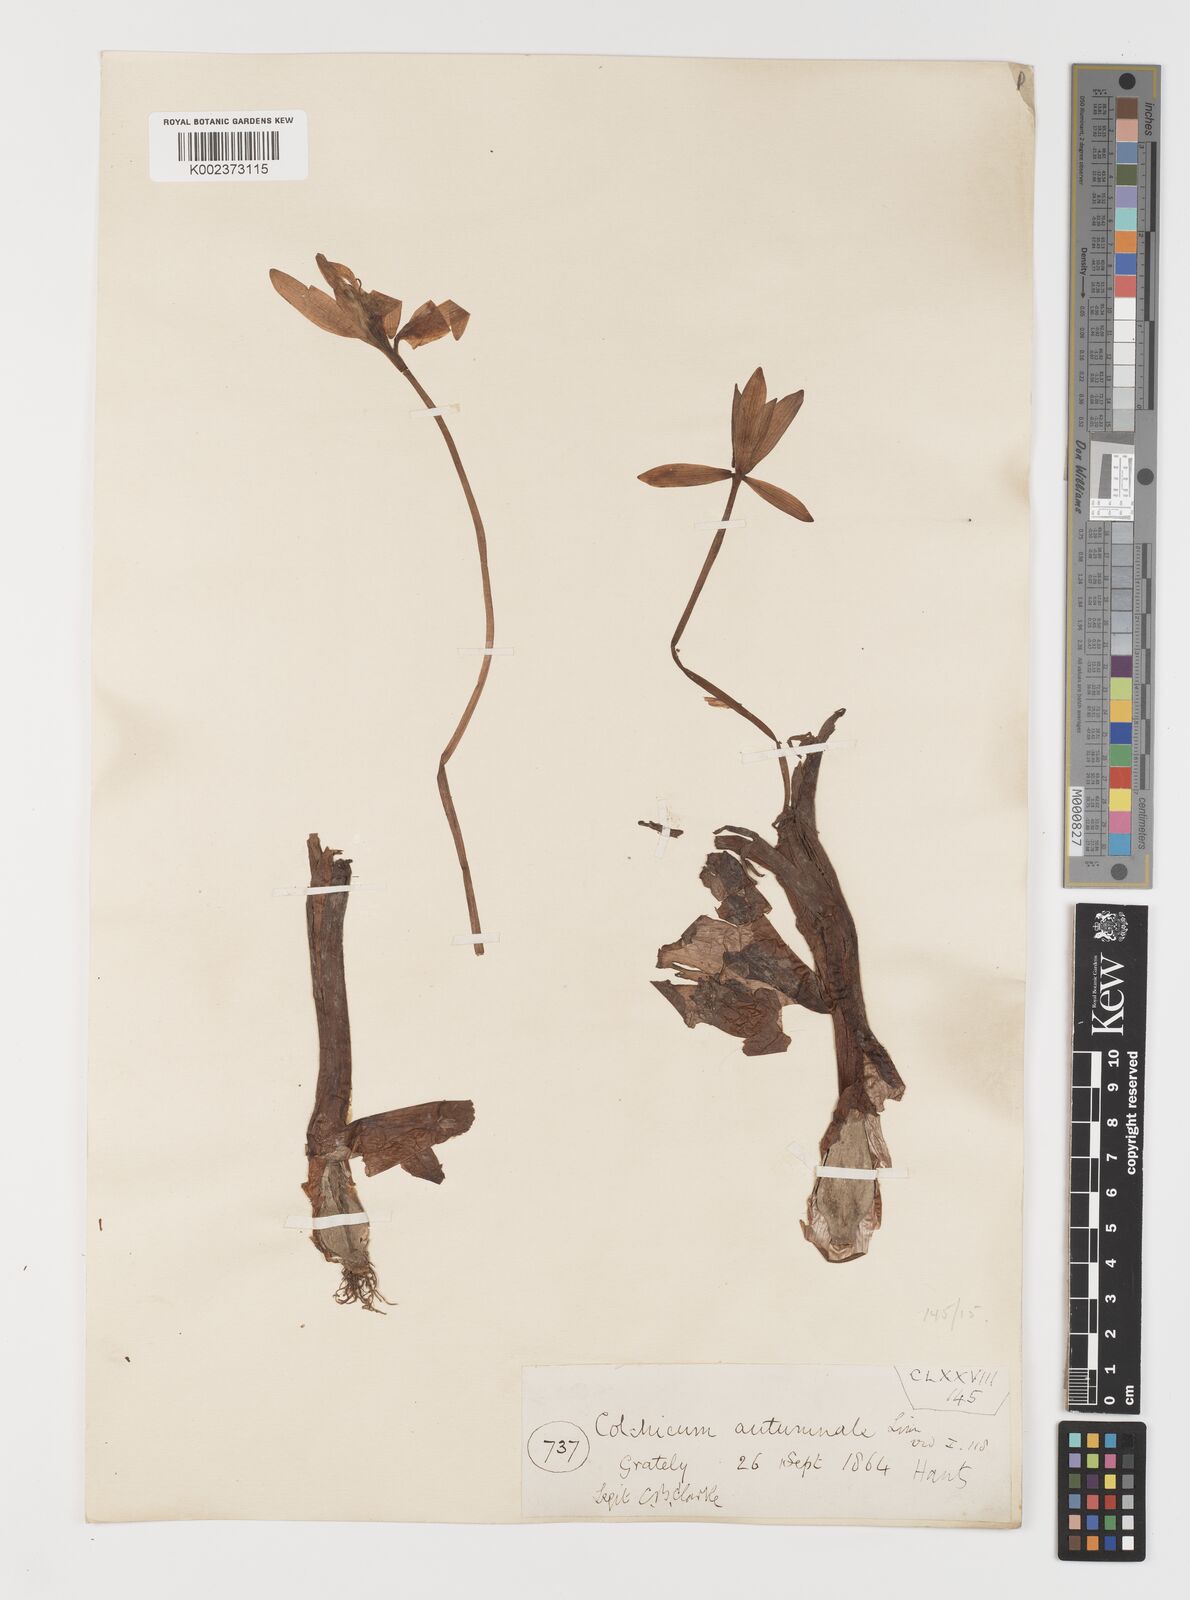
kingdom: Plantae
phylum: Tracheophyta
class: Liliopsida
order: Liliales
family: Colchicaceae
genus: Colchicum
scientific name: Colchicum autumnale
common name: Autumn crocus
